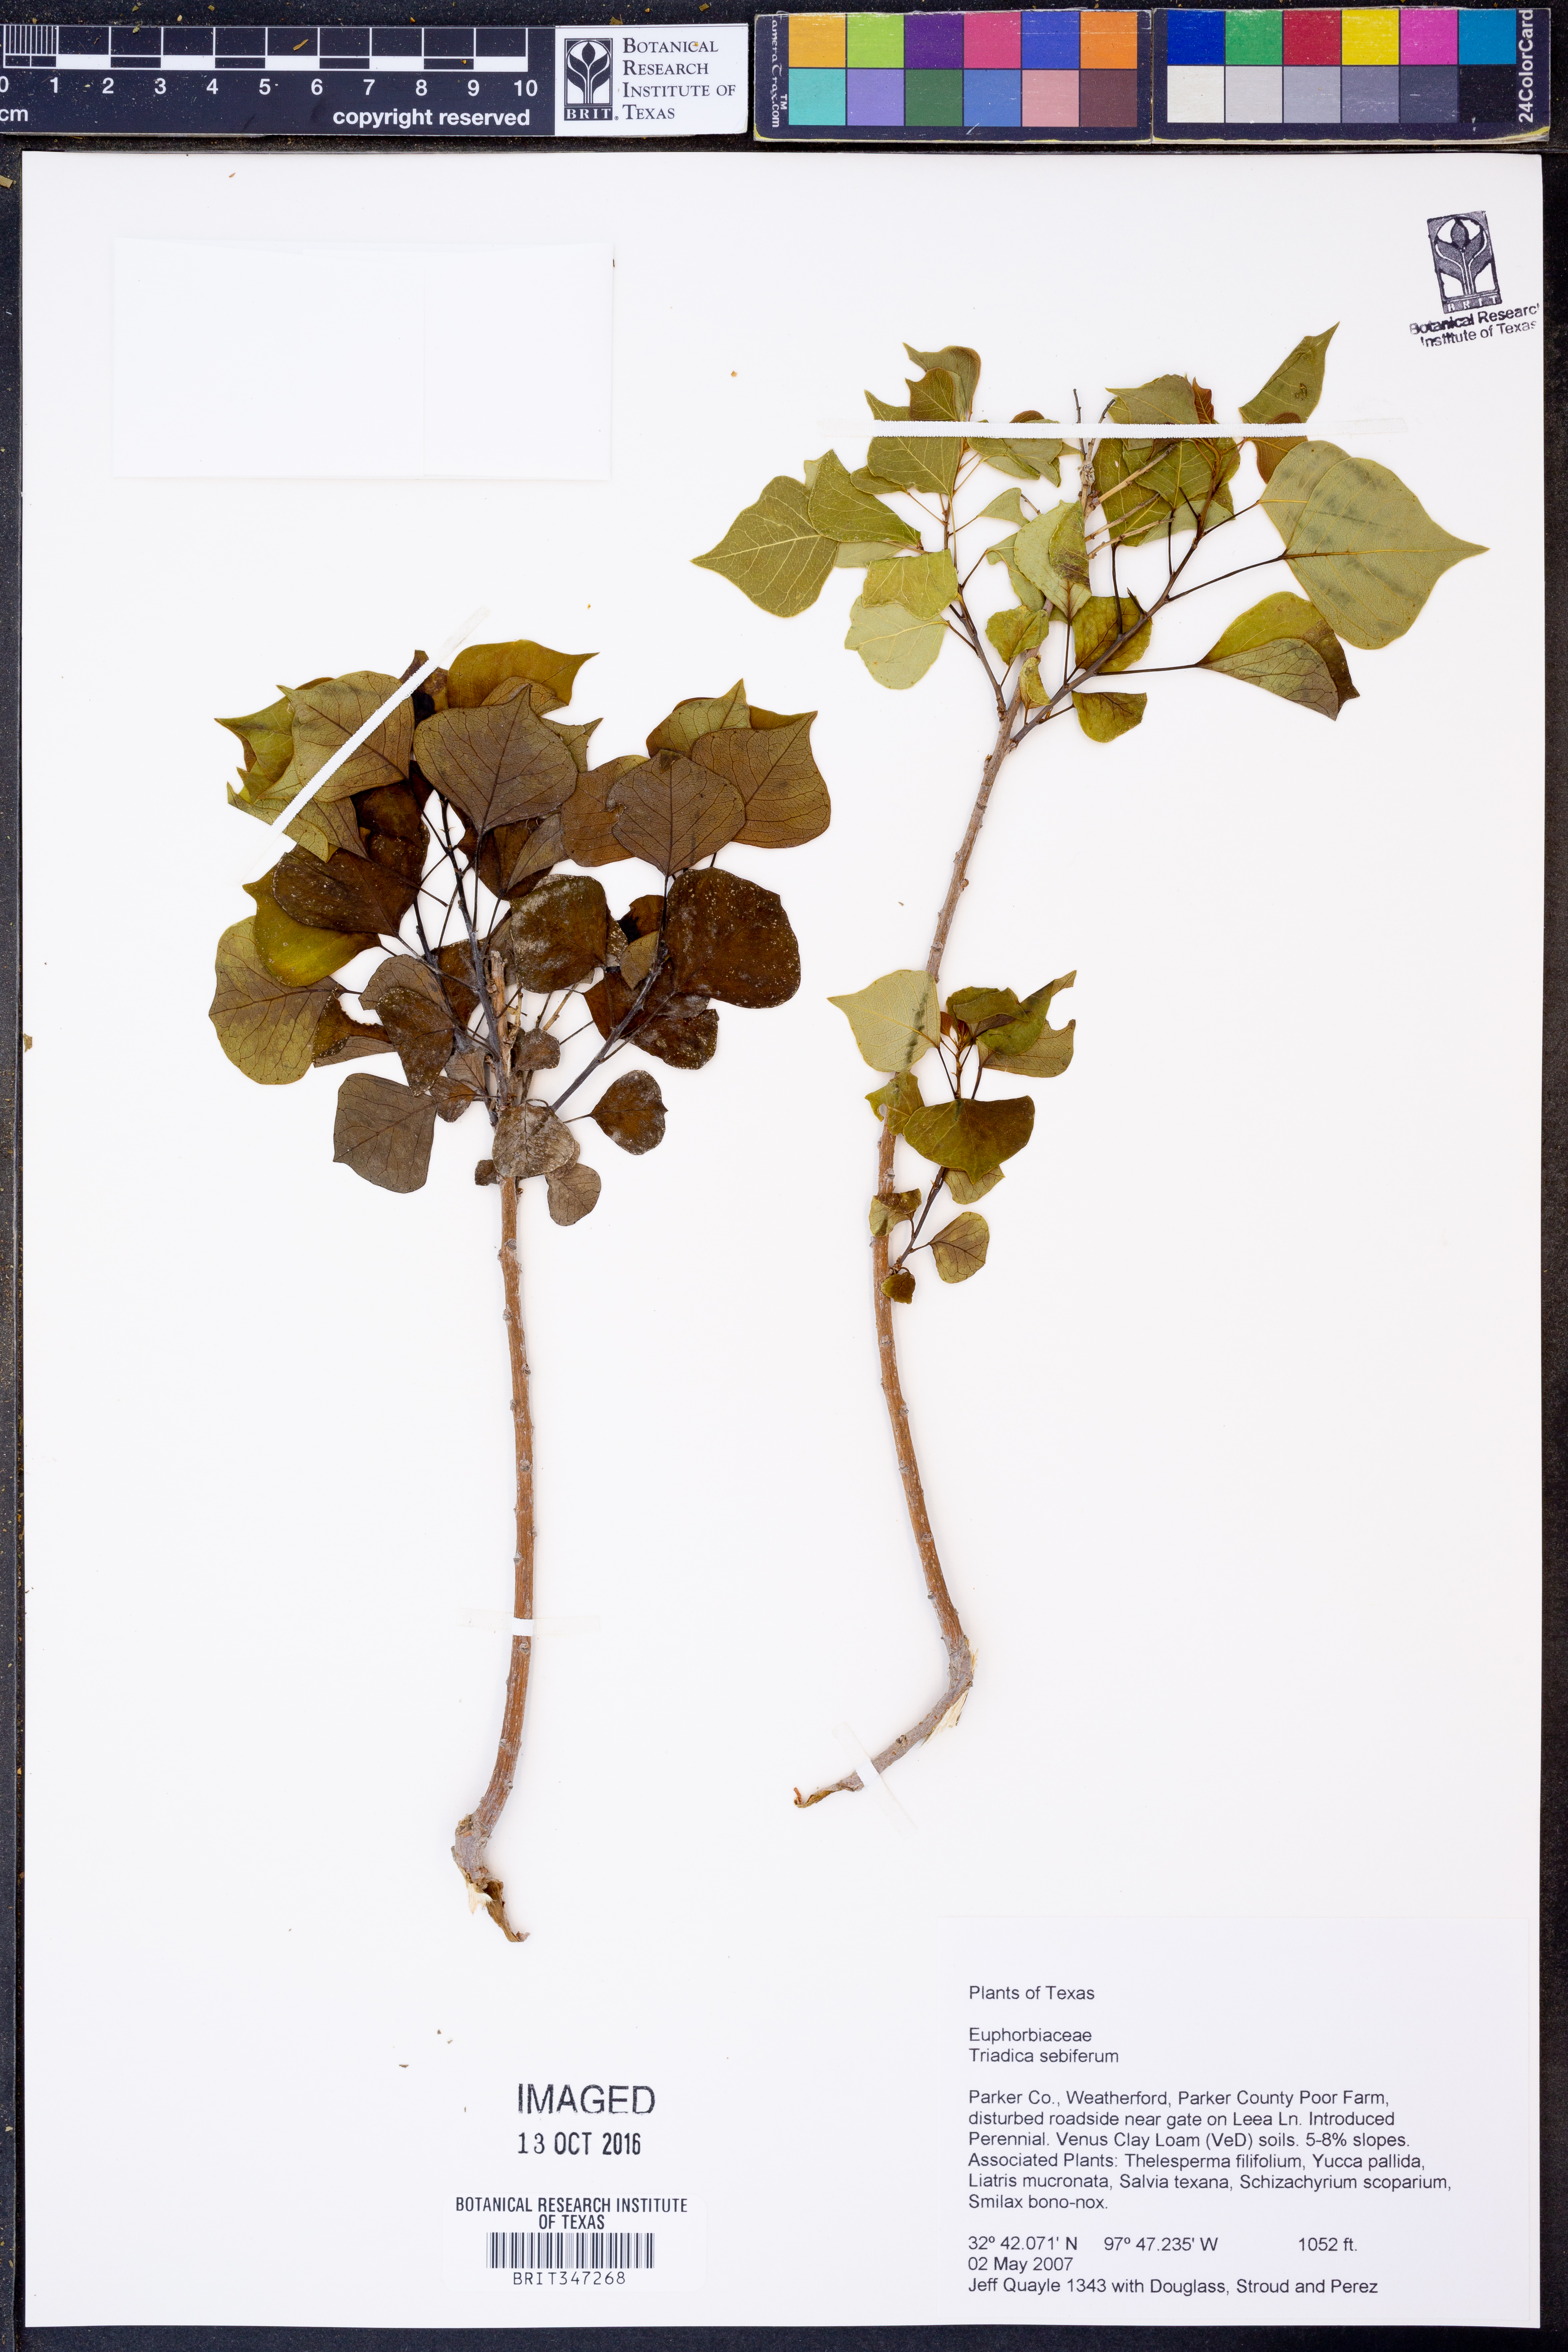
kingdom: Plantae
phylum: Tracheophyta
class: Magnoliopsida
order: Malpighiales
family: Euphorbiaceae
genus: Triadica
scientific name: Triadica sebifera
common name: Chinese tallow
